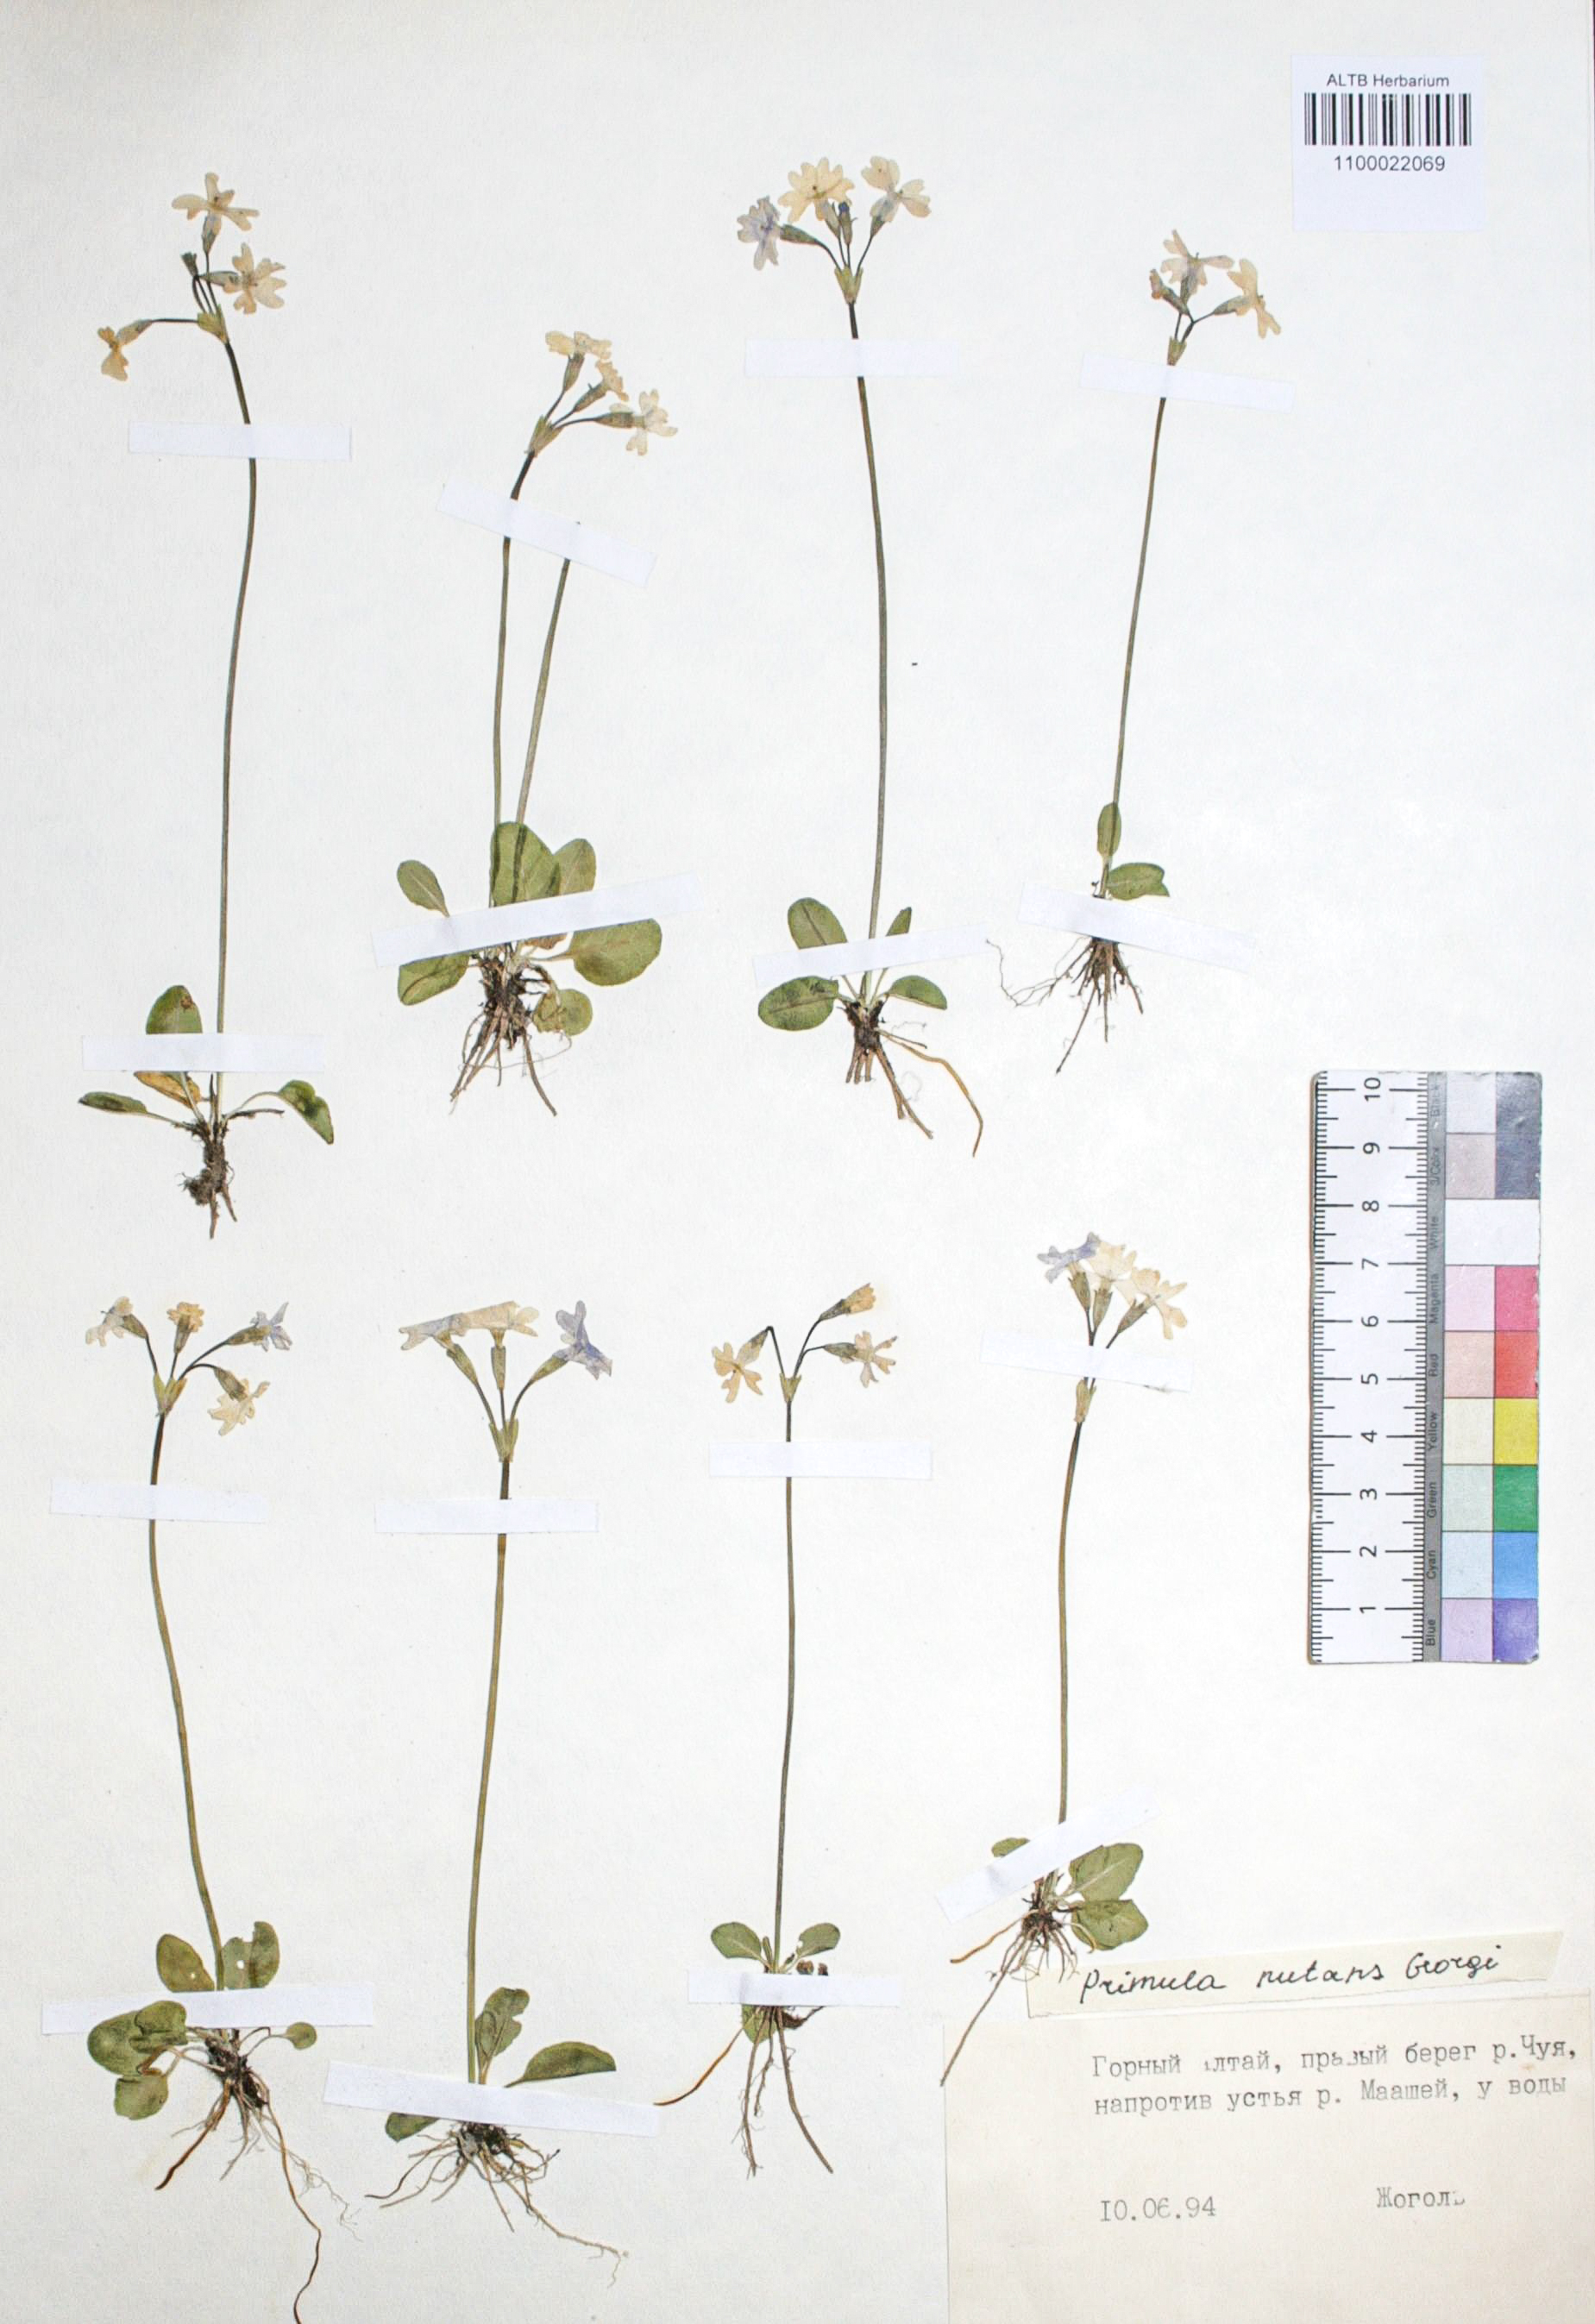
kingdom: Plantae
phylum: Tracheophyta
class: Magnoliopsida
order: Ericales
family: Primulaceae
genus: Primula
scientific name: Primula nutans
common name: Siberian primrose
